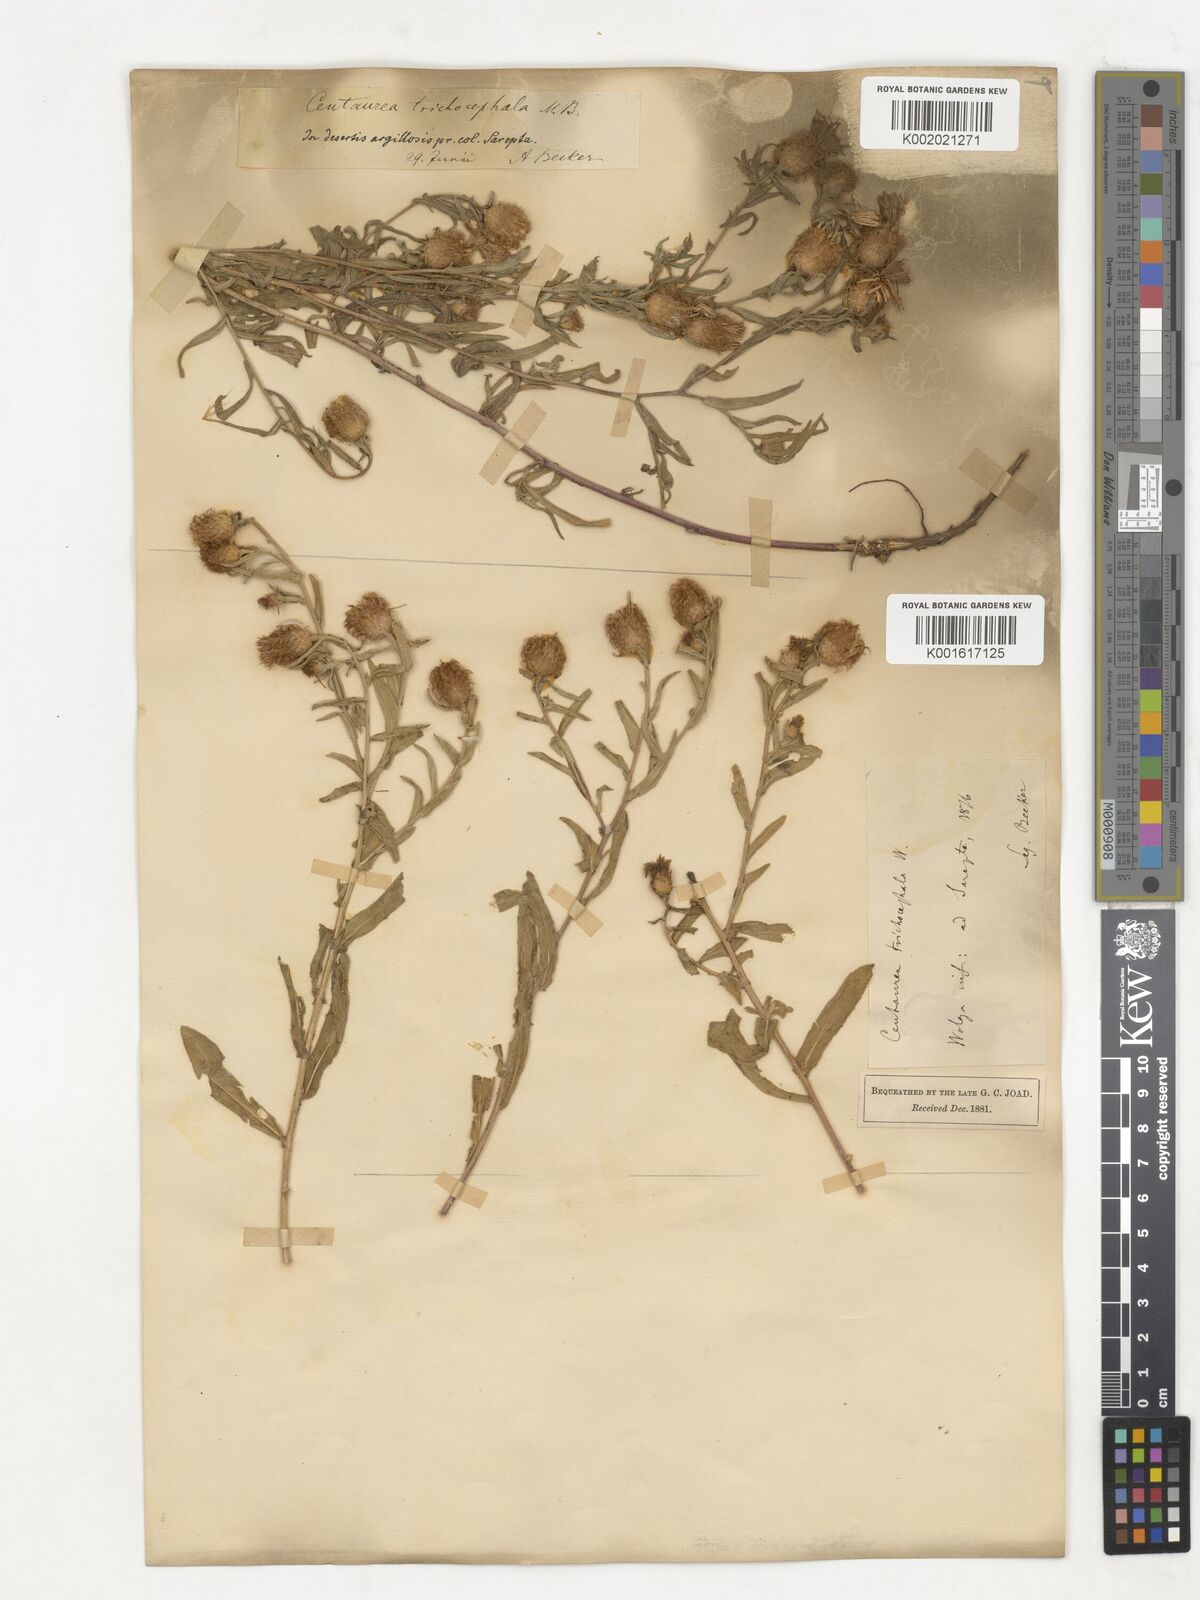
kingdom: Plantae
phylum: Tracheophyta
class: Magnoliopsida
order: Asterales
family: Asteraceae
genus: Centaurea
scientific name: Centaurea trichocephala
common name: Feather-head knapweed
